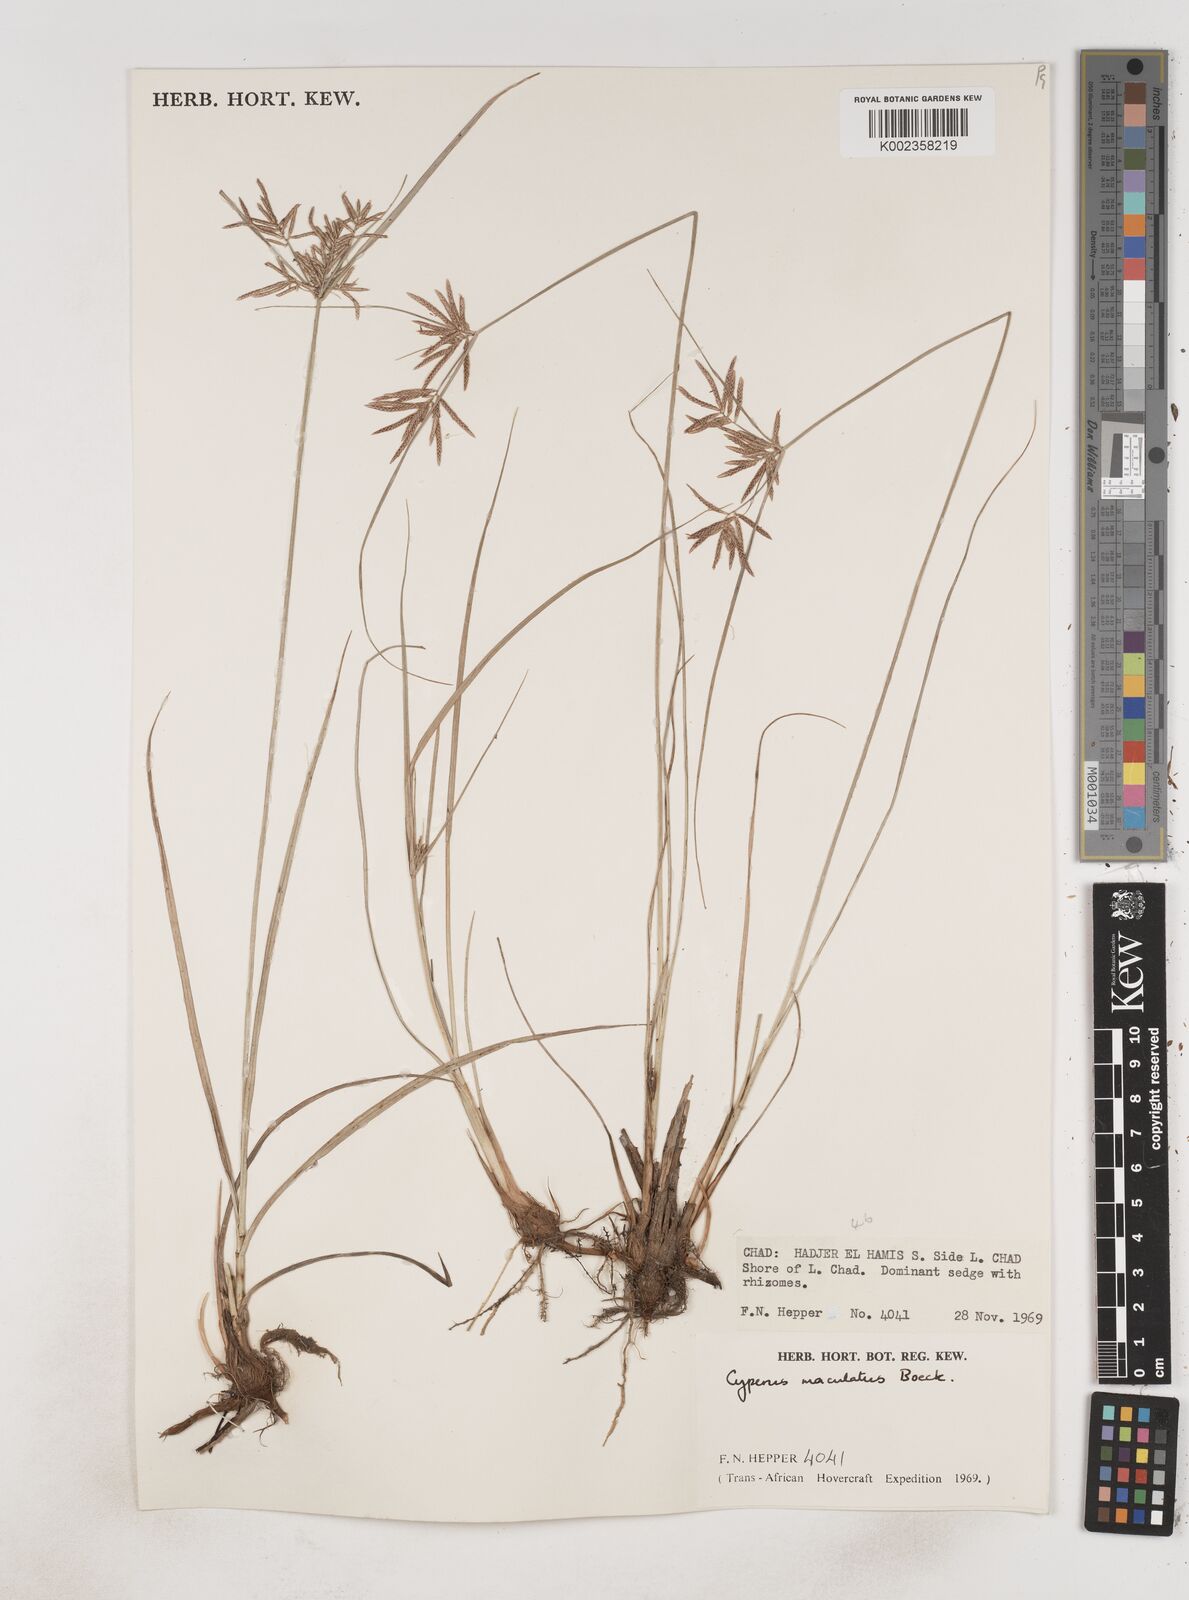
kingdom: Plantae
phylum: Tracheophyta
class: Liliopsida
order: Poales
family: Cyperaceae
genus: Cyperus
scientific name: Cyperus maculatus
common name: Maculated sedge
